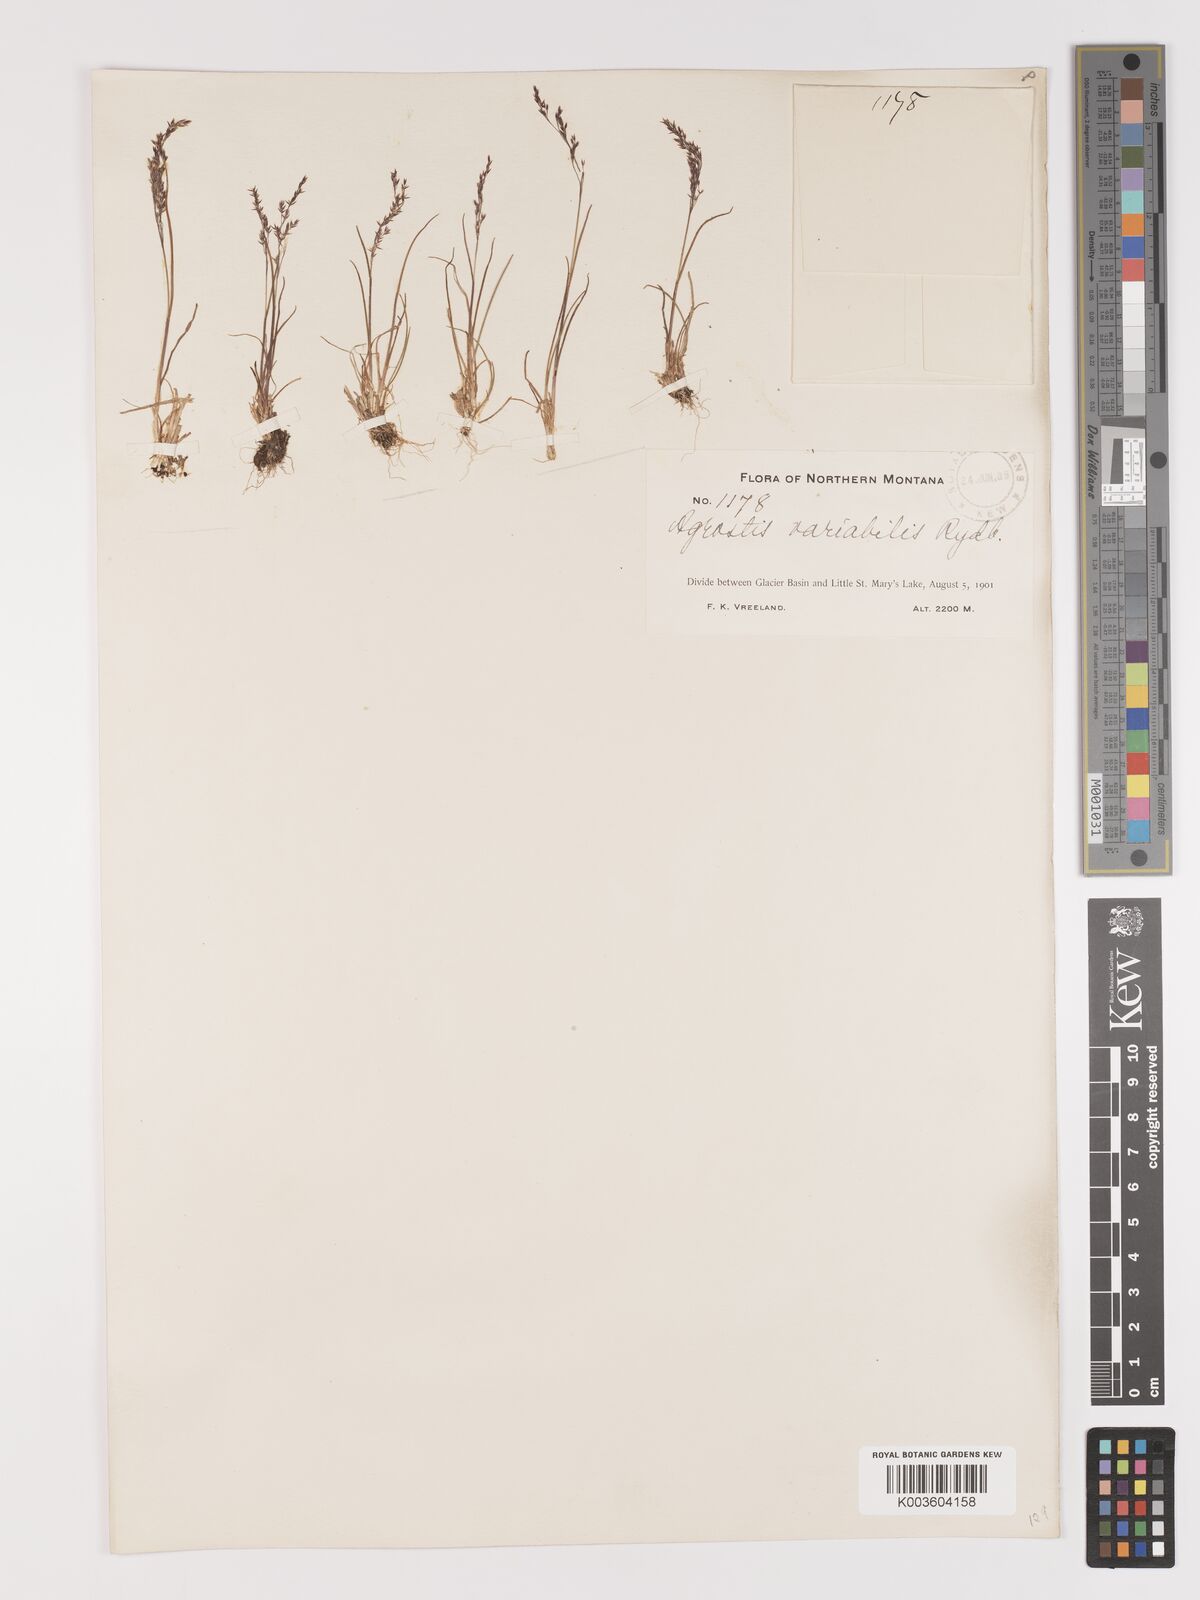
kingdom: Plantae
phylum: Tracheophyta
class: Liliopsida
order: Poales
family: Poaceae
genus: Agrostis
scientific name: Agrostis rossiae
